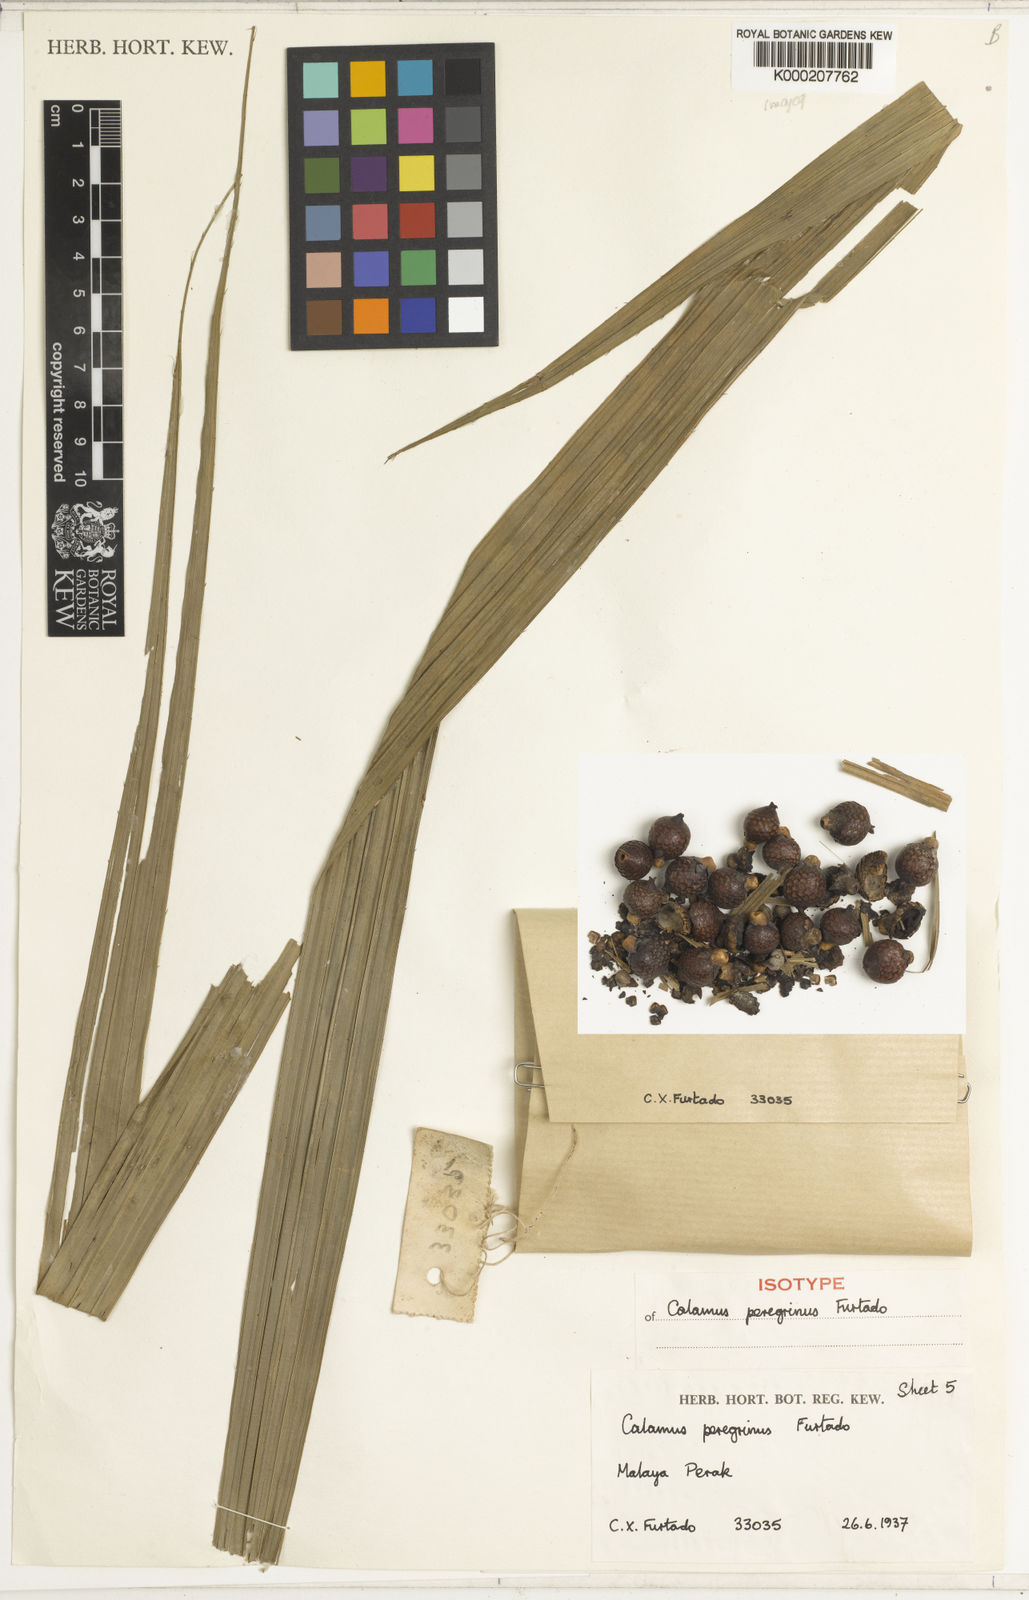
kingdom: Plantae
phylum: Tracheophyta
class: Liliopsida
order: Arecales
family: Arecaceae
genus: Calamus
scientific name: Calamus peregrinus
